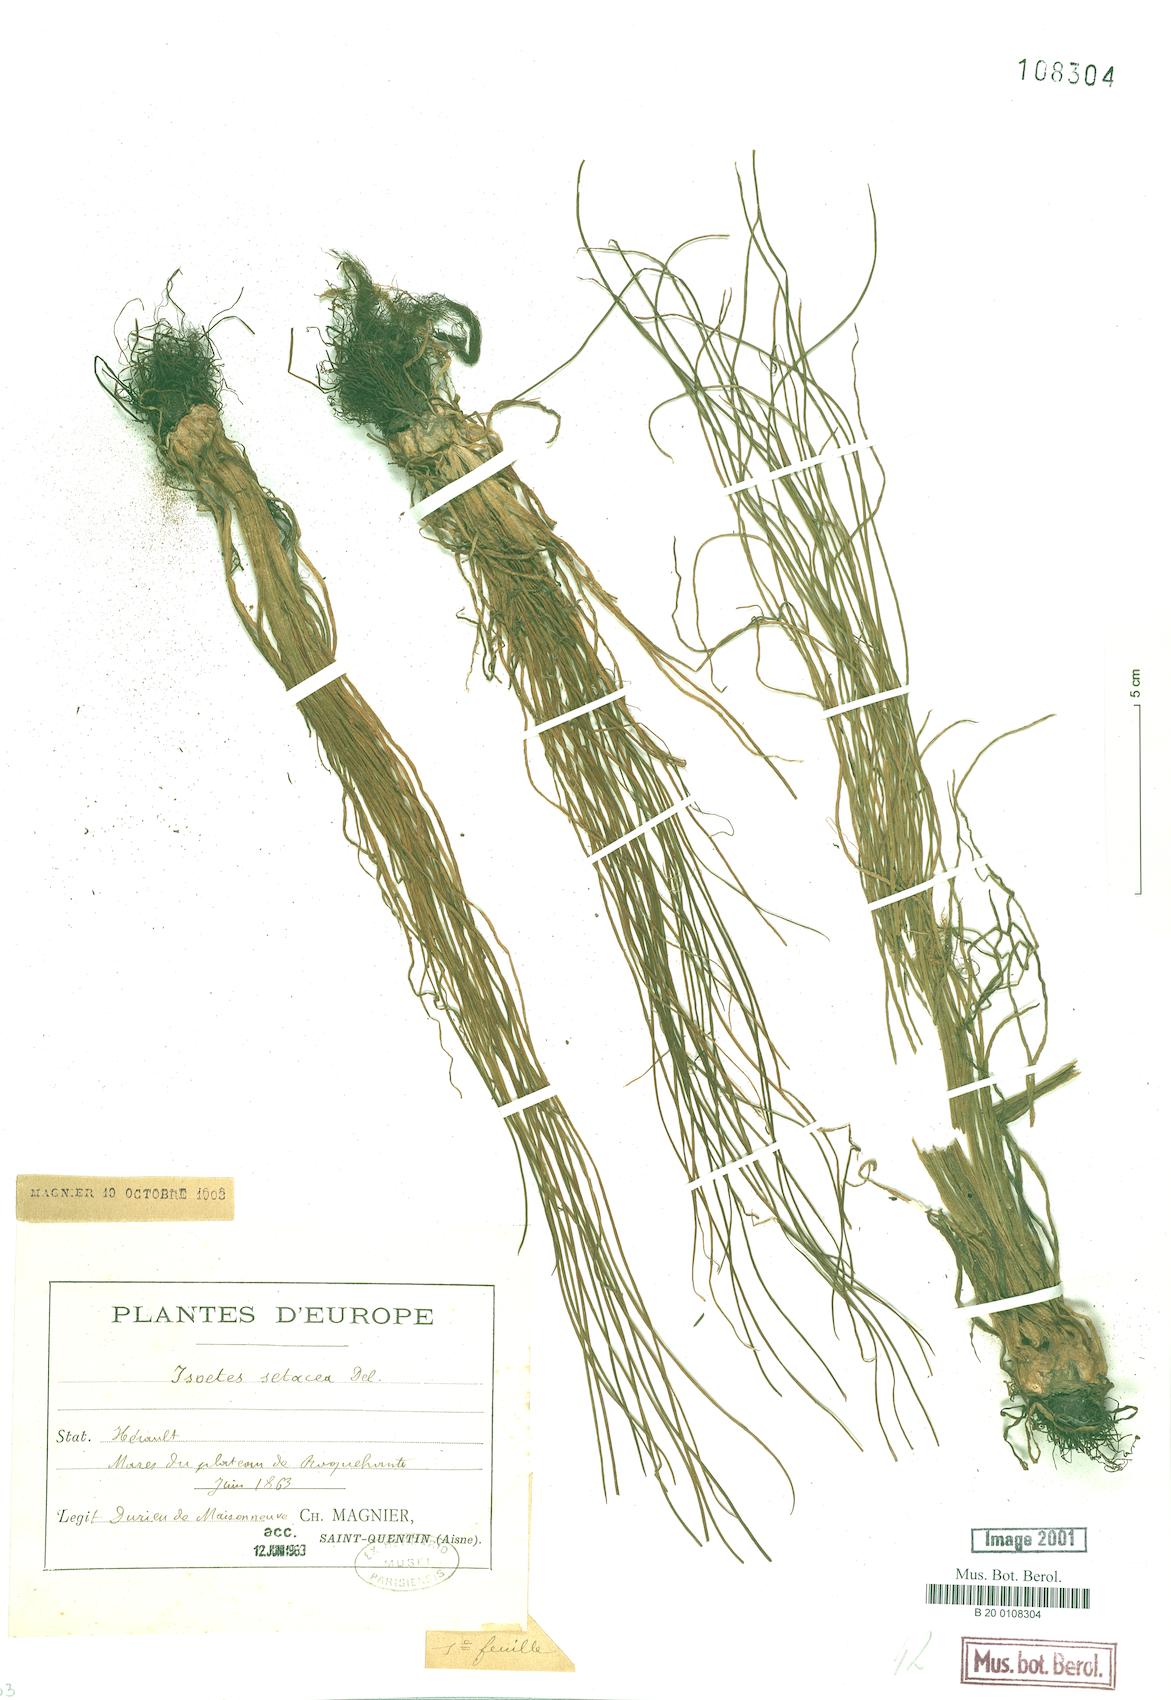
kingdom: Plantae
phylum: Tracheophyta
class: Lycopodiopsida
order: Isoetales
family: Isoetaceae
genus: Isoetes
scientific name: Isoetes lacustris
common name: Common quillwort
